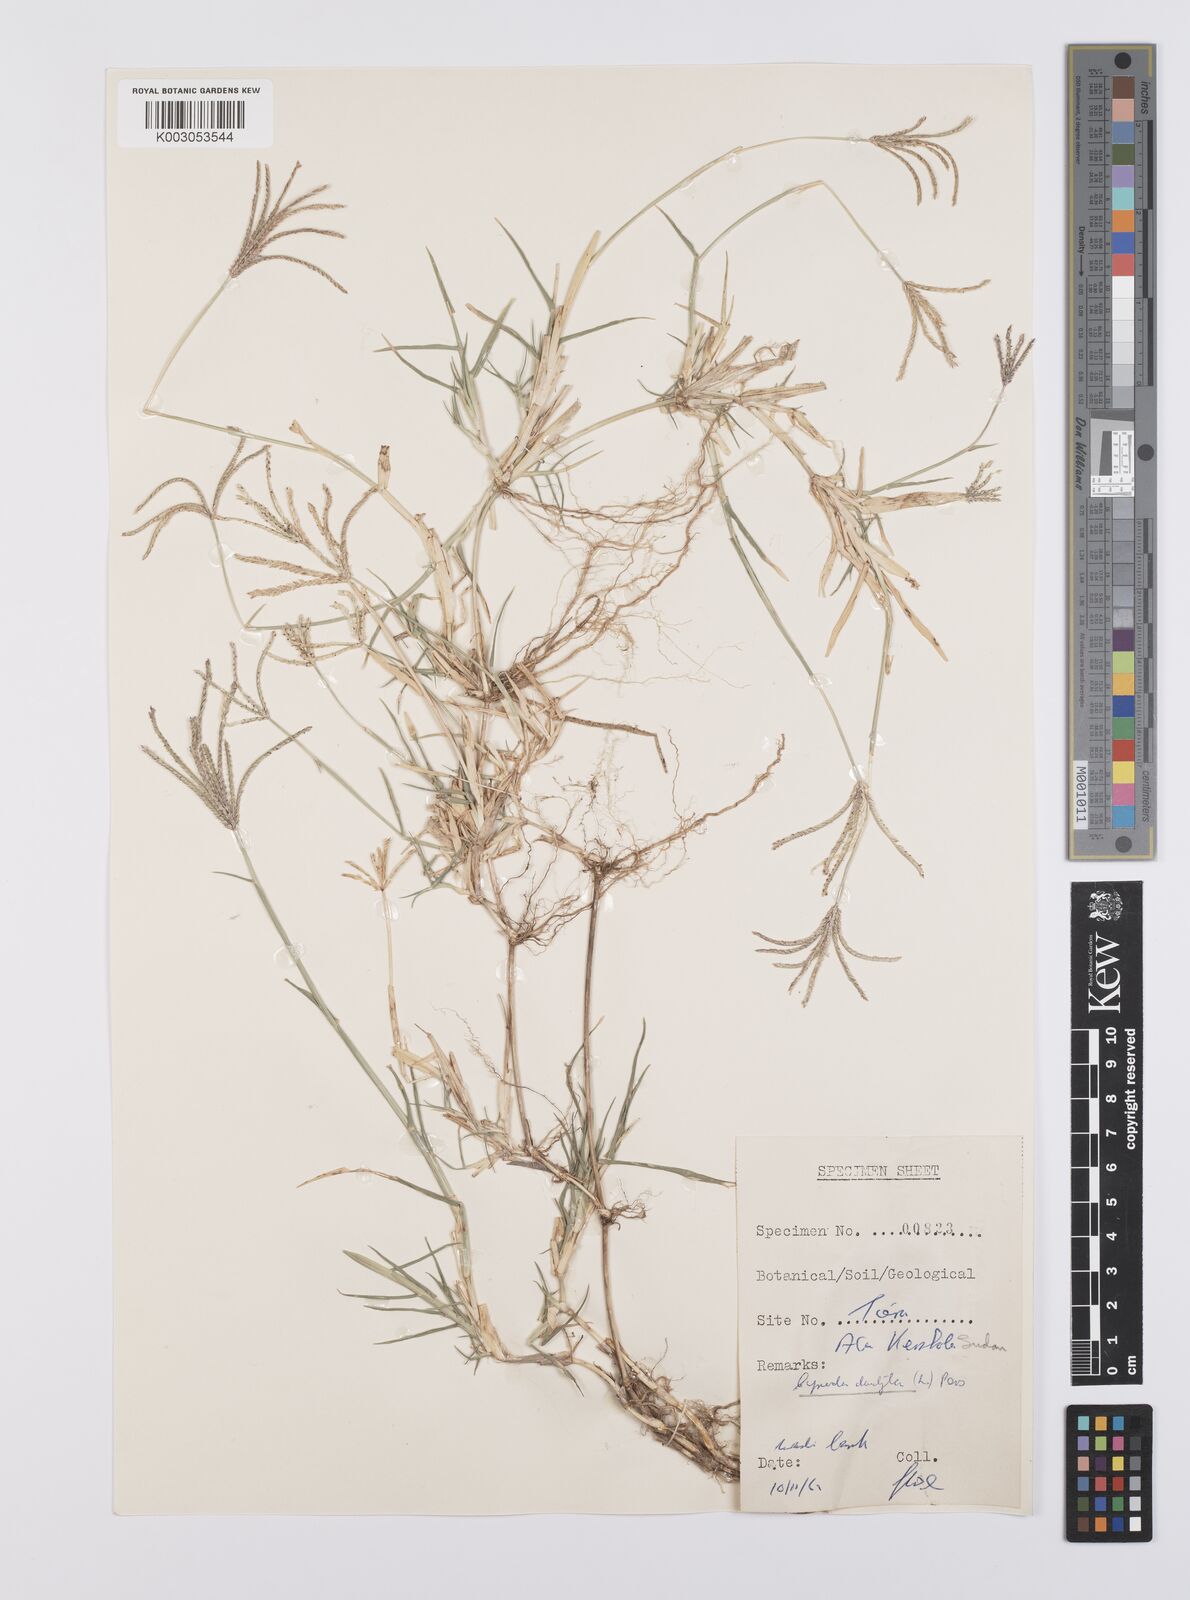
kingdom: Plantae
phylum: Tracheophyta
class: Liliopsida
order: Poales
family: Poaceae
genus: Cynodon
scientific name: Cynodon dactylon
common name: Bermuda grass
